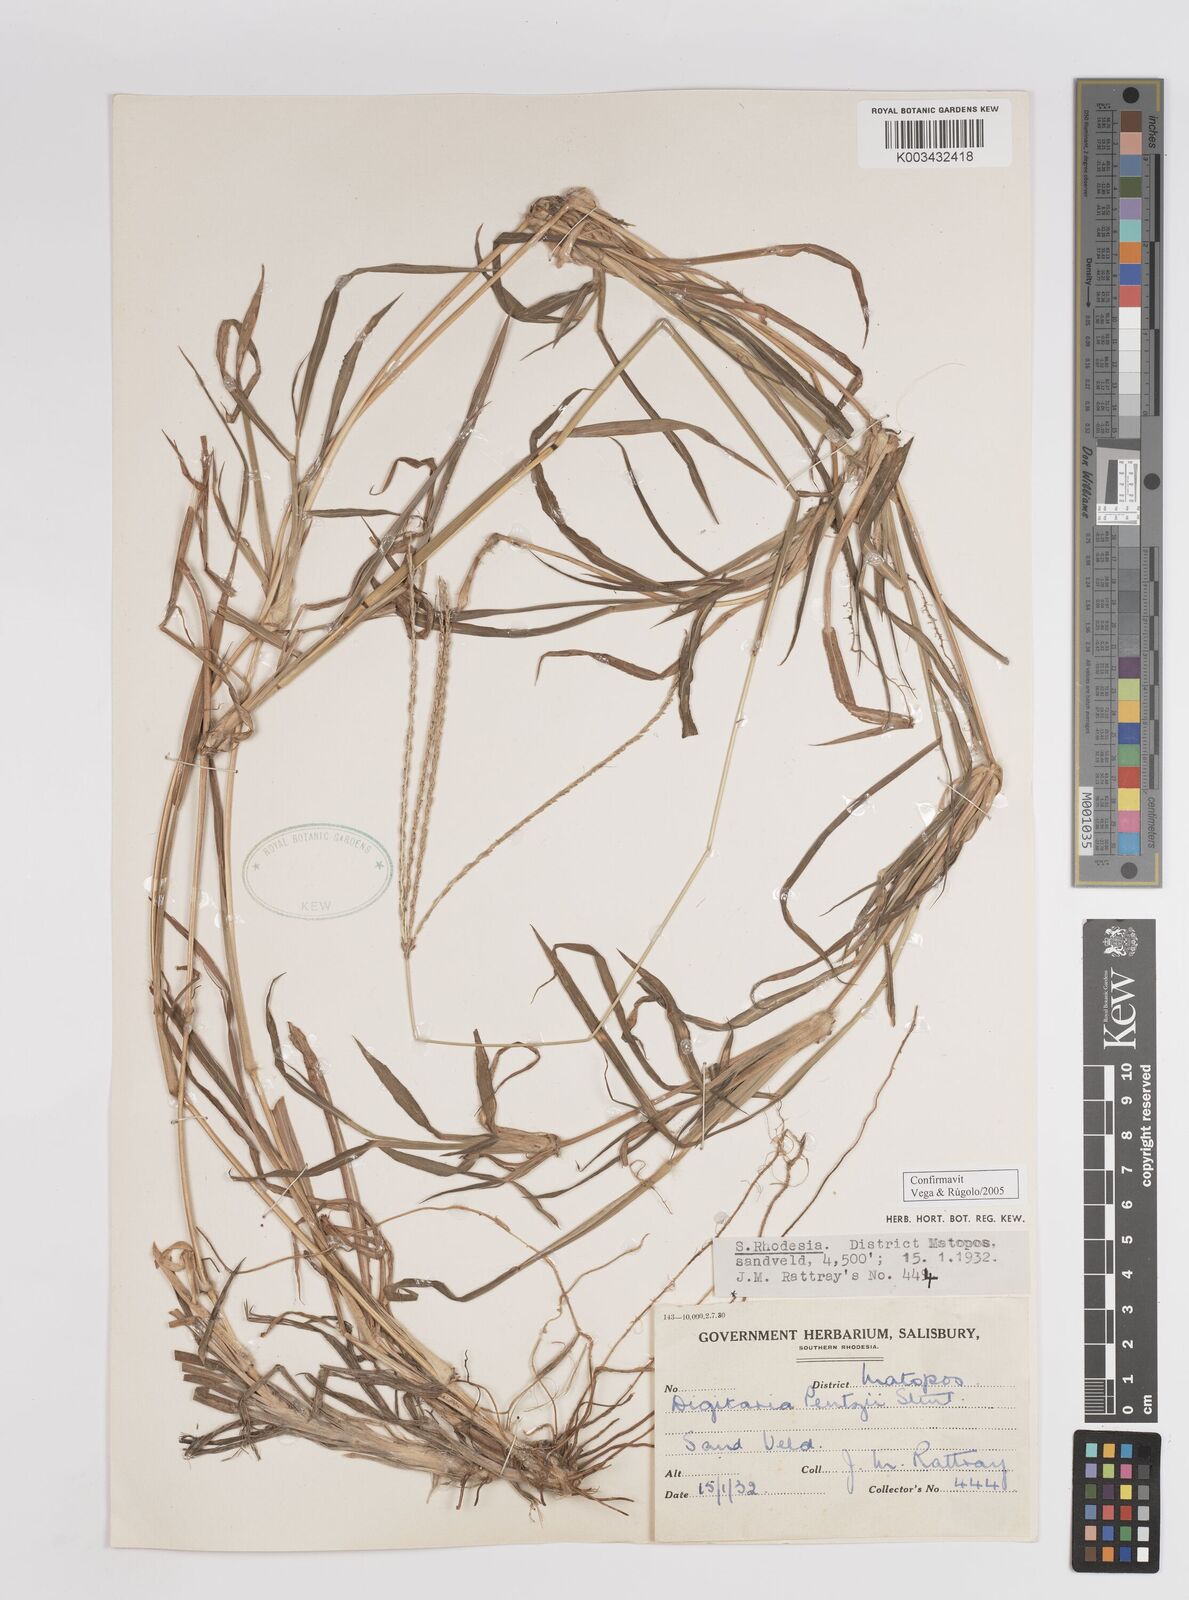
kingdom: Plantae
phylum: Tracheophyta
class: Liliopsida
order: Poales
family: Poaceae
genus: Digitaria
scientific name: Digitaria eriantha
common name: Digitgrass
